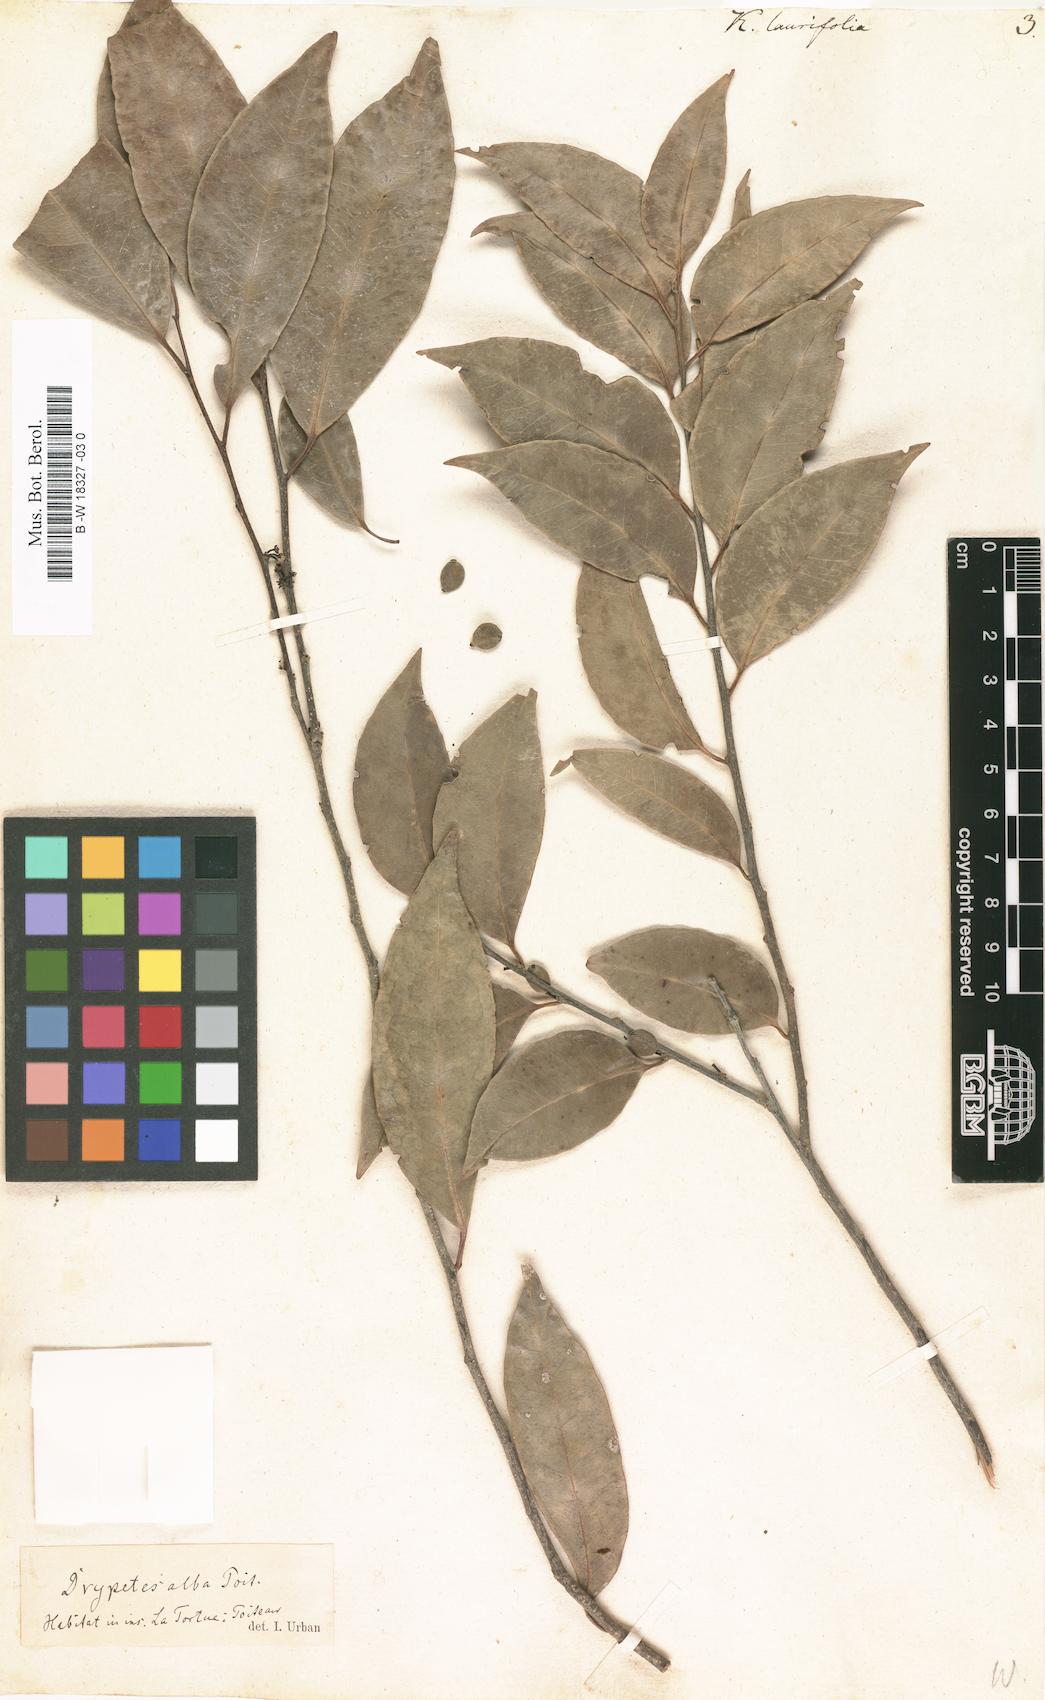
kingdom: Plantae
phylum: Tracheophyta
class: Magnoliopsida
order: Malpighiales
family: Salicaceae
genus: Xylosma
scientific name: Xylosma coriacea
